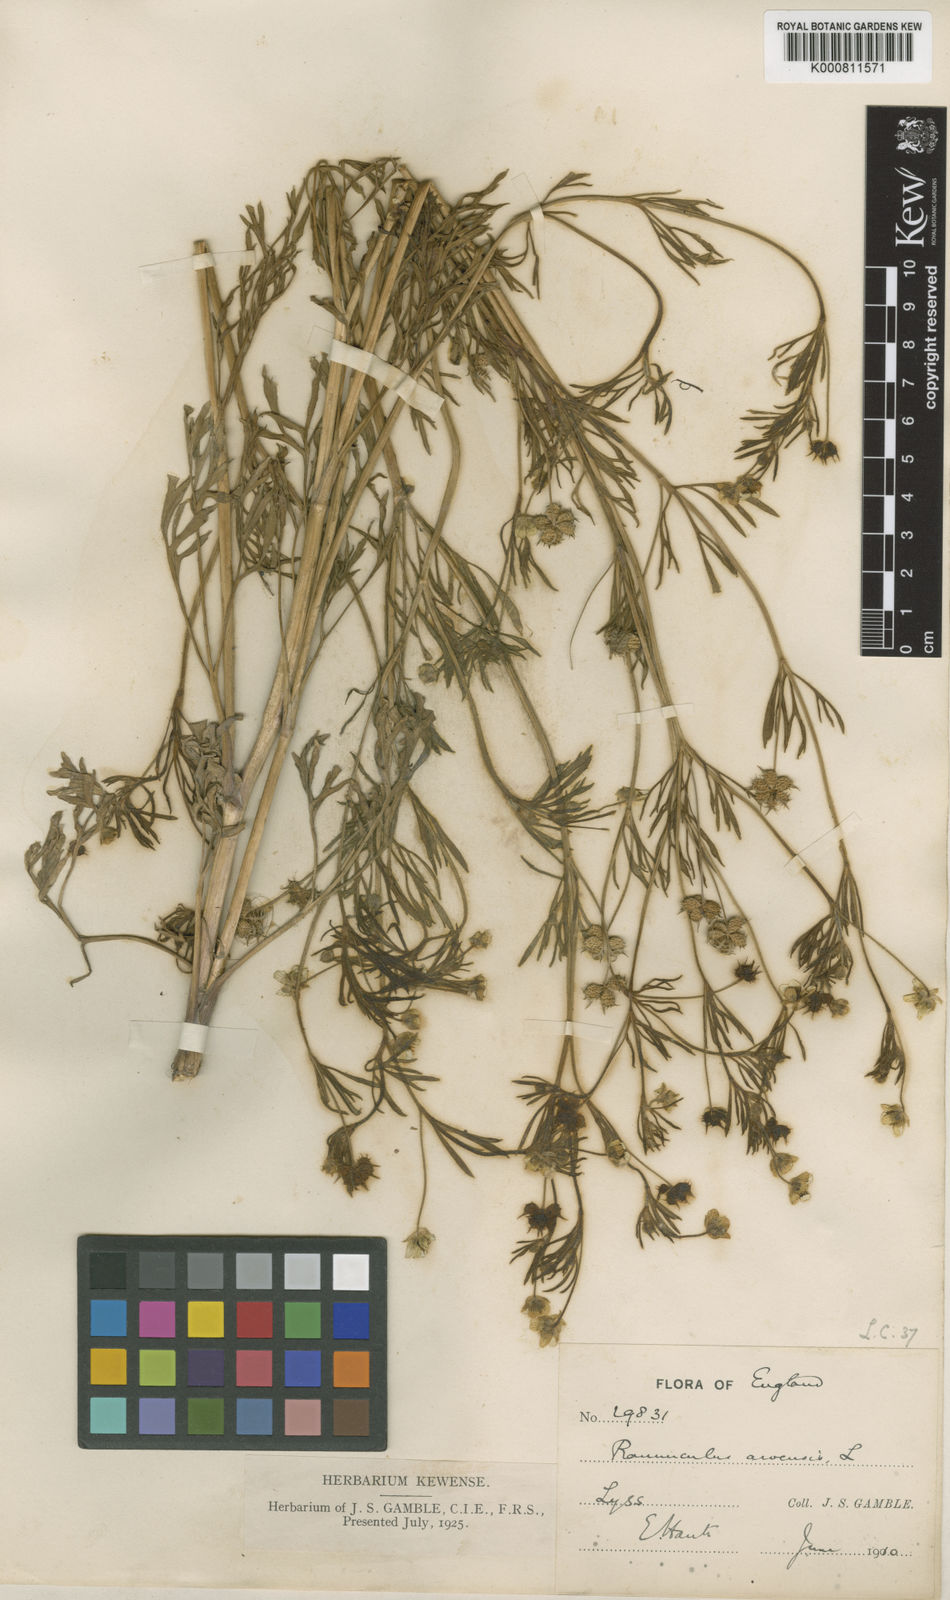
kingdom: Plantae
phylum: Tracheophyta
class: Magnoliopsida
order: Ranunculales
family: Ranunculaceae
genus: Ranunculus
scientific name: Ranunculus arvensis
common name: Corn buttercup
